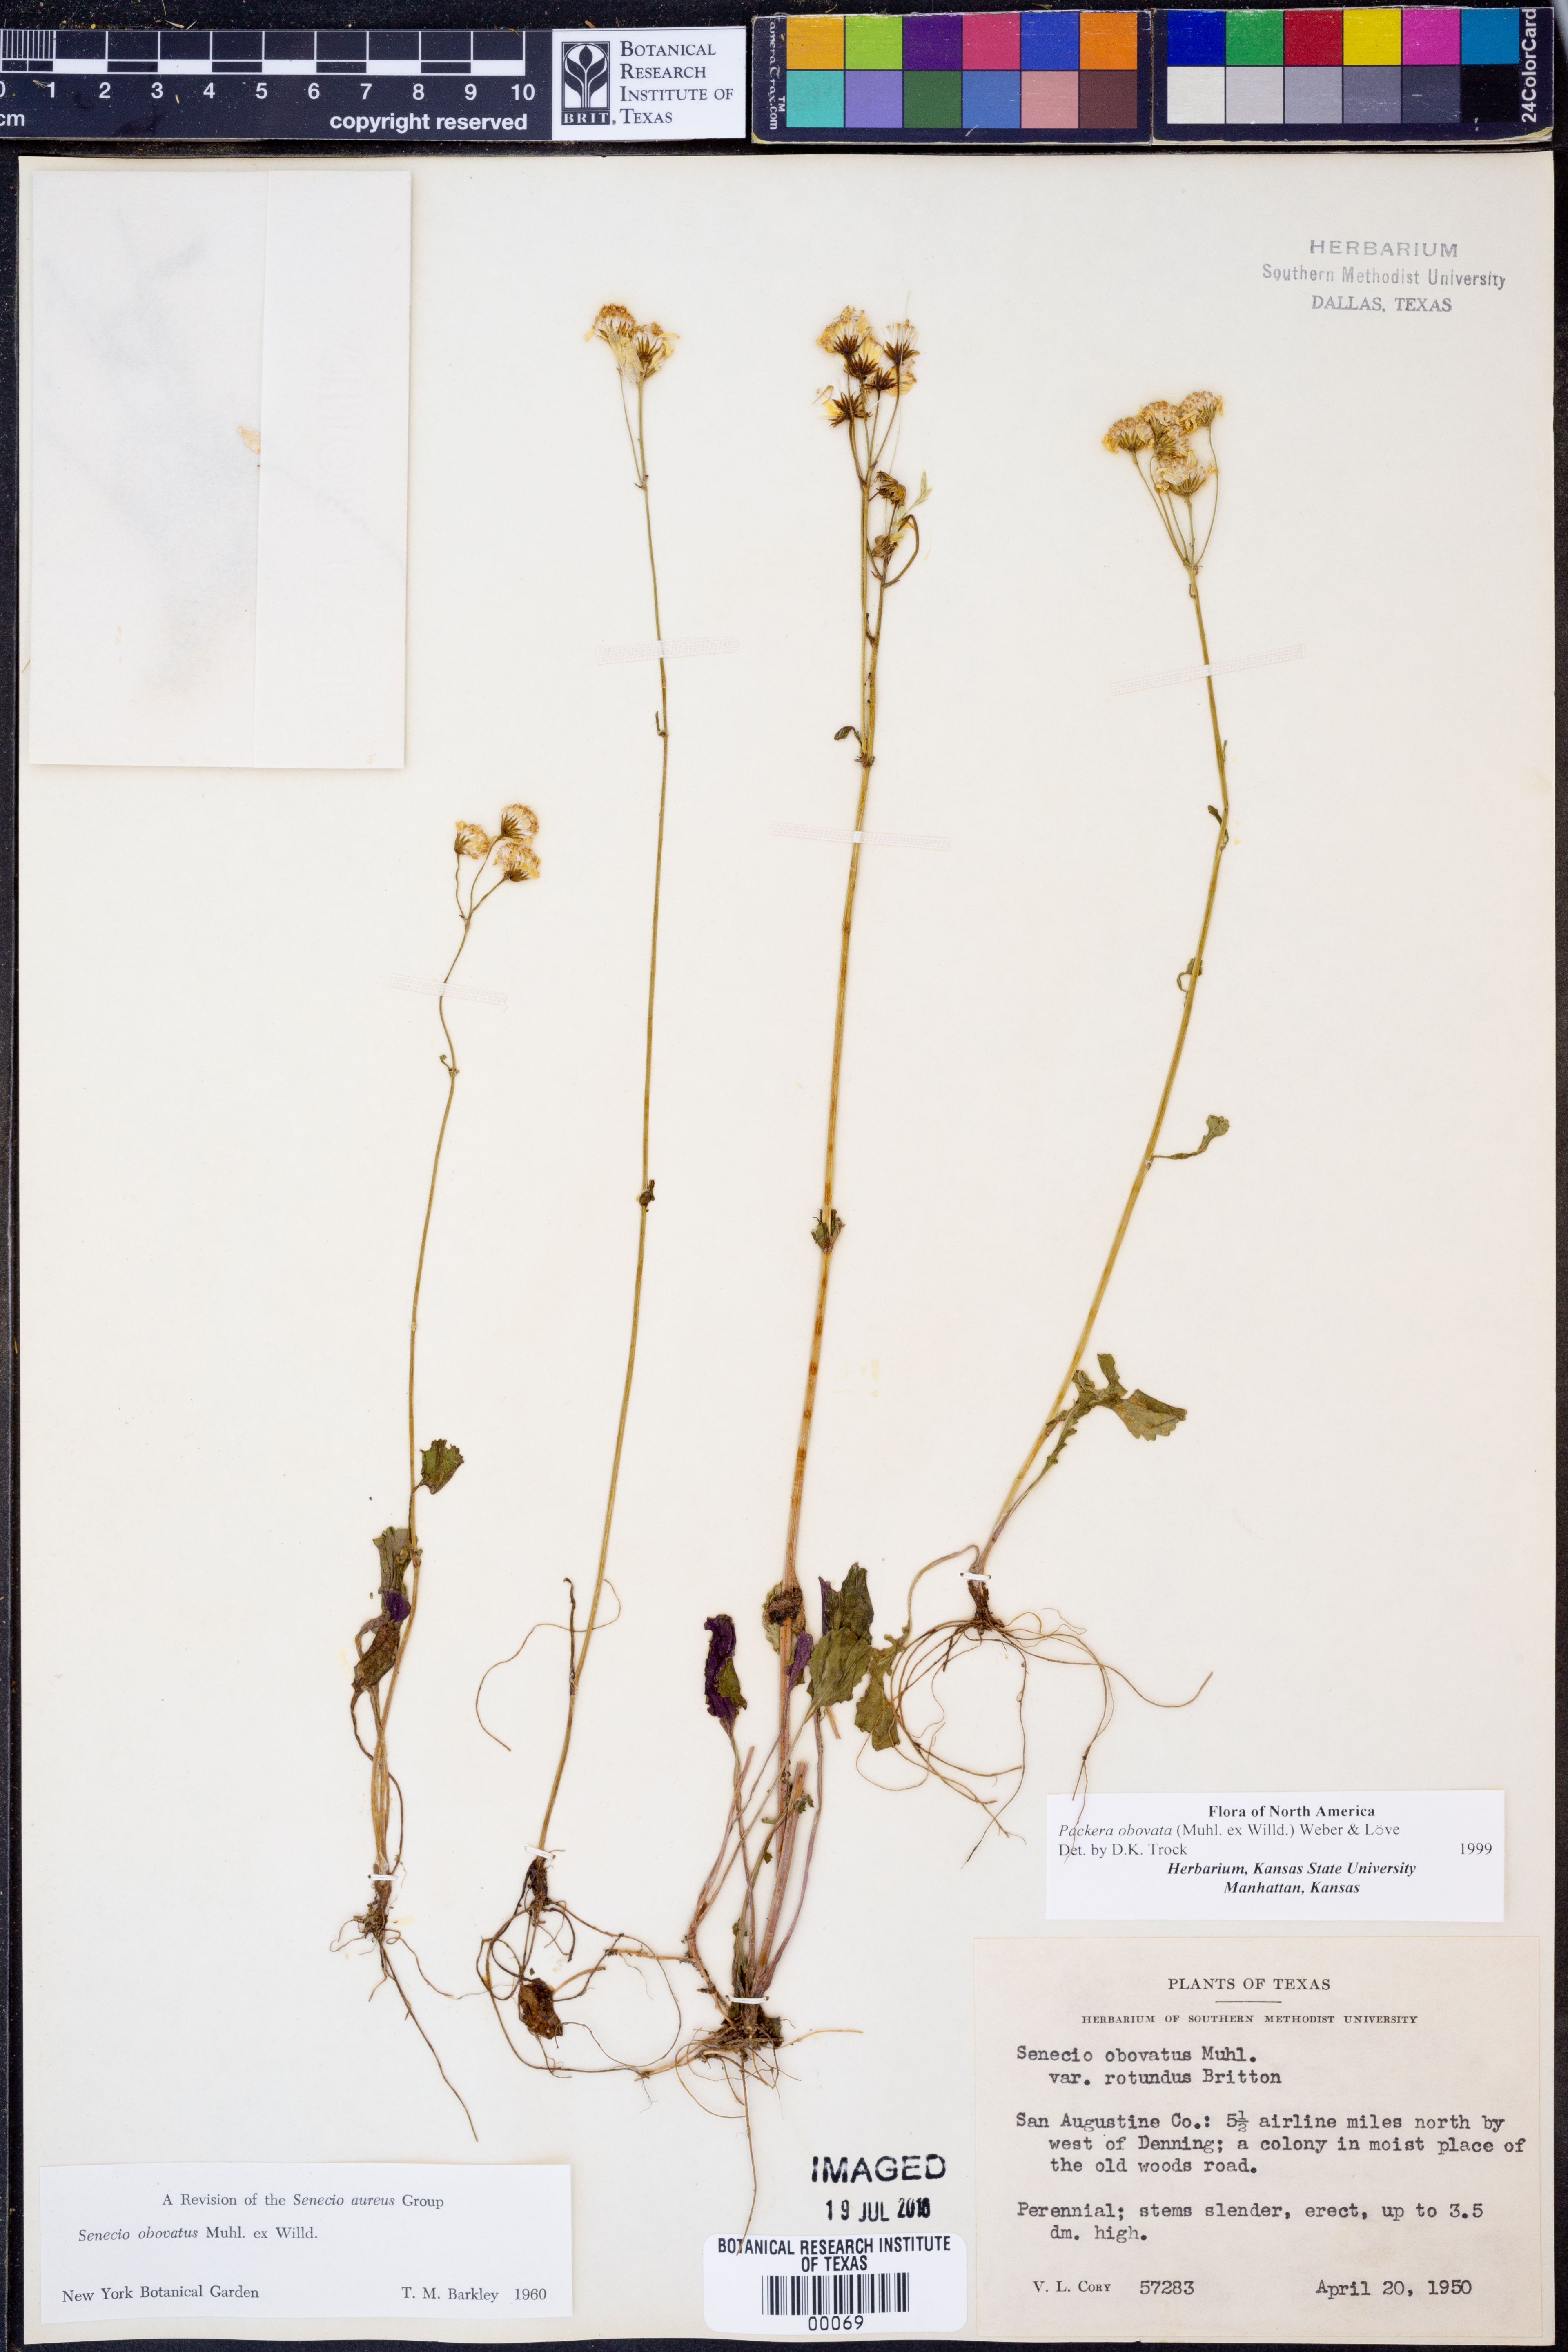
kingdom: Plantae
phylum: Tracheophyta
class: Magnoliopsida
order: Asterales
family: Asteraceae
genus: Packera
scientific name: Packera obovata
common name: Round-leaf ragwort
